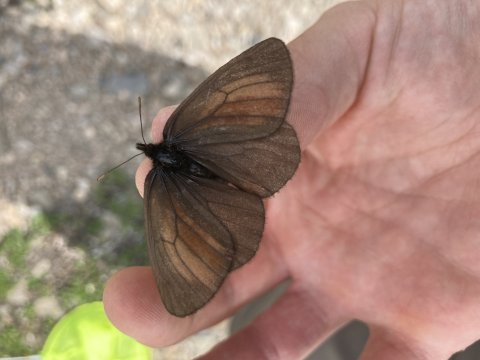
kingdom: Animalia
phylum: Arthropoda
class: Insecta
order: Lepidoptera
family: Nymphalidae
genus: Erebia
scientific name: Erebia mackinleyensis
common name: Mt. Mackinley Alpine
